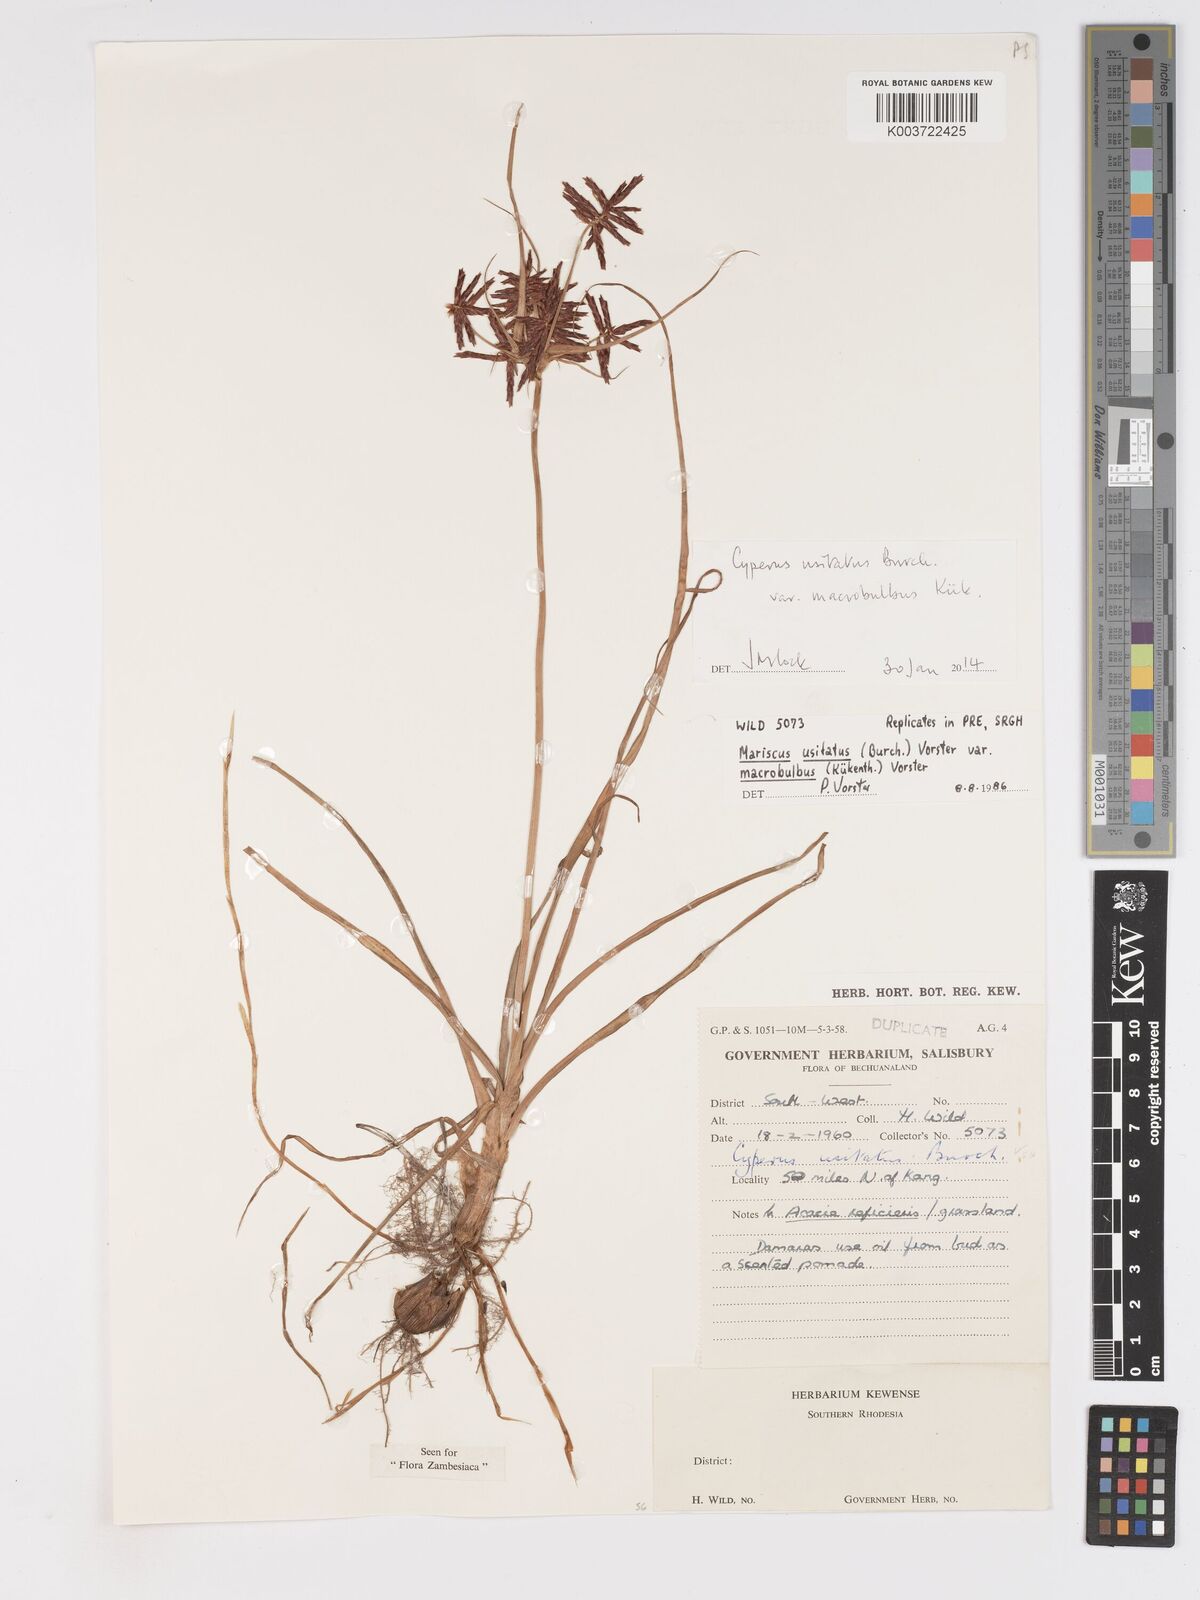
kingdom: Plantae
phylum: Tracheophyta
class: Liliopsida
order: Poales
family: Cyperaceae
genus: Cyperus
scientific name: Cyperus usitatus
